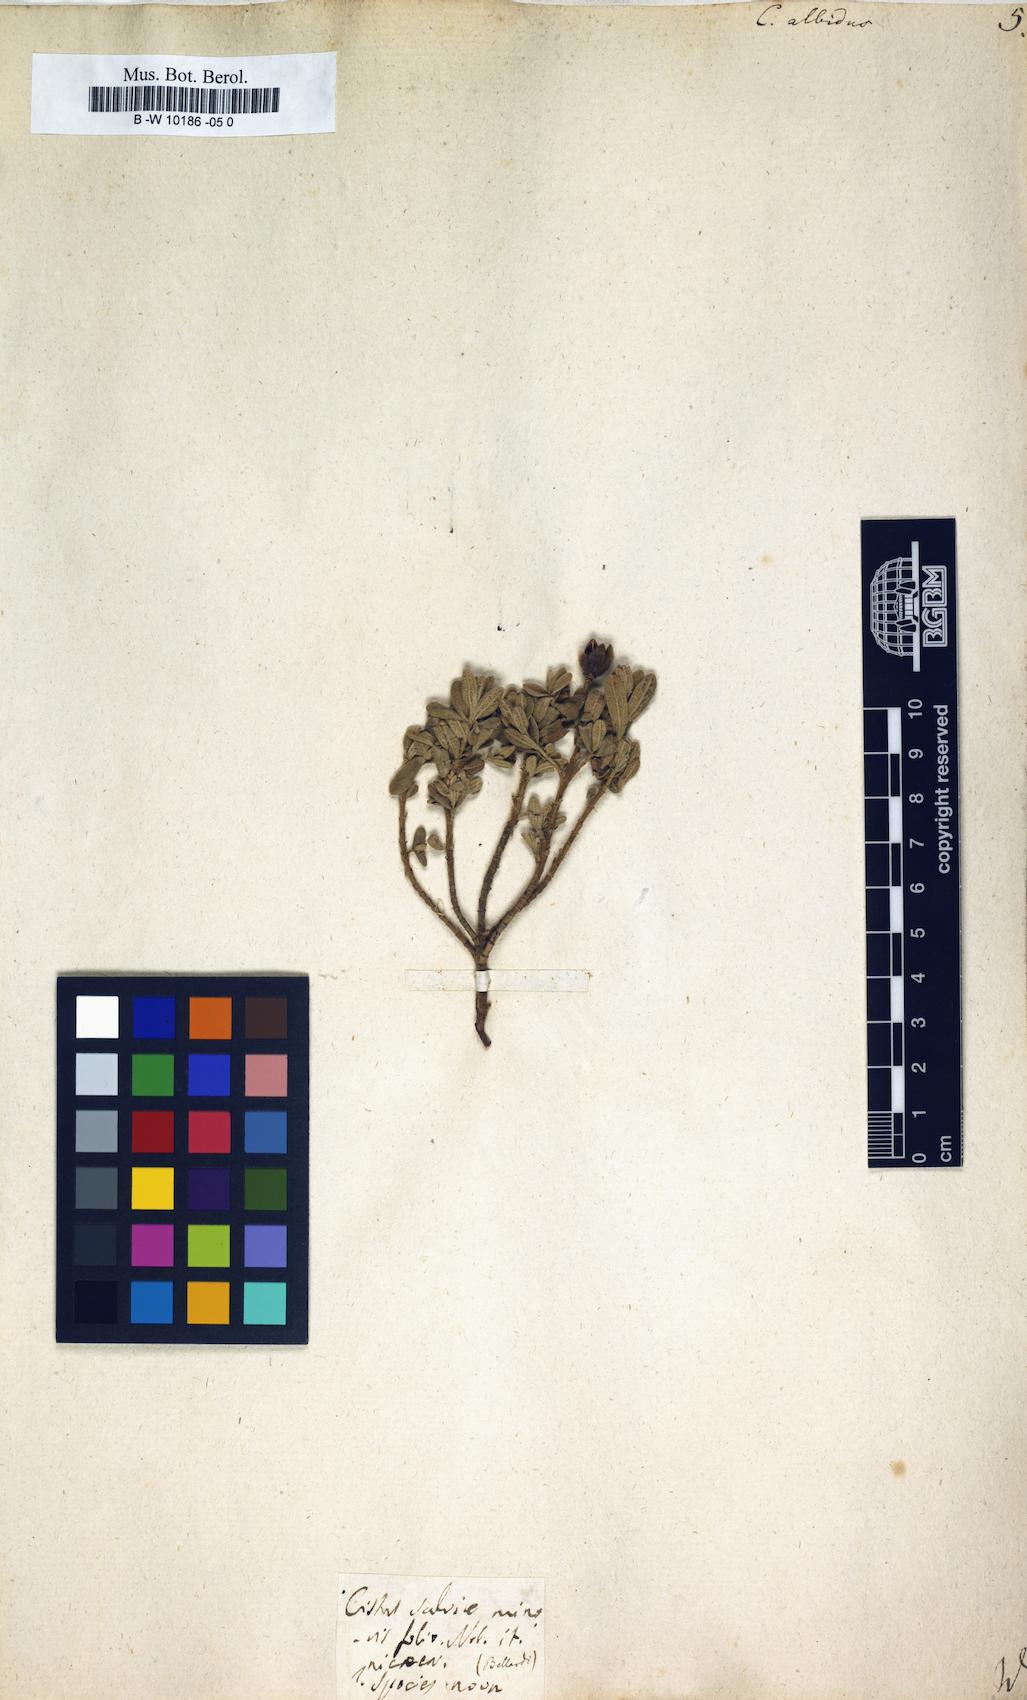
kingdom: Plantae
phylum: Tracheophyta
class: Magnoliopsida
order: Malvales
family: Cistaceae
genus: Cistus
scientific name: Cistus albidus
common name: White-leaf rock-rose
